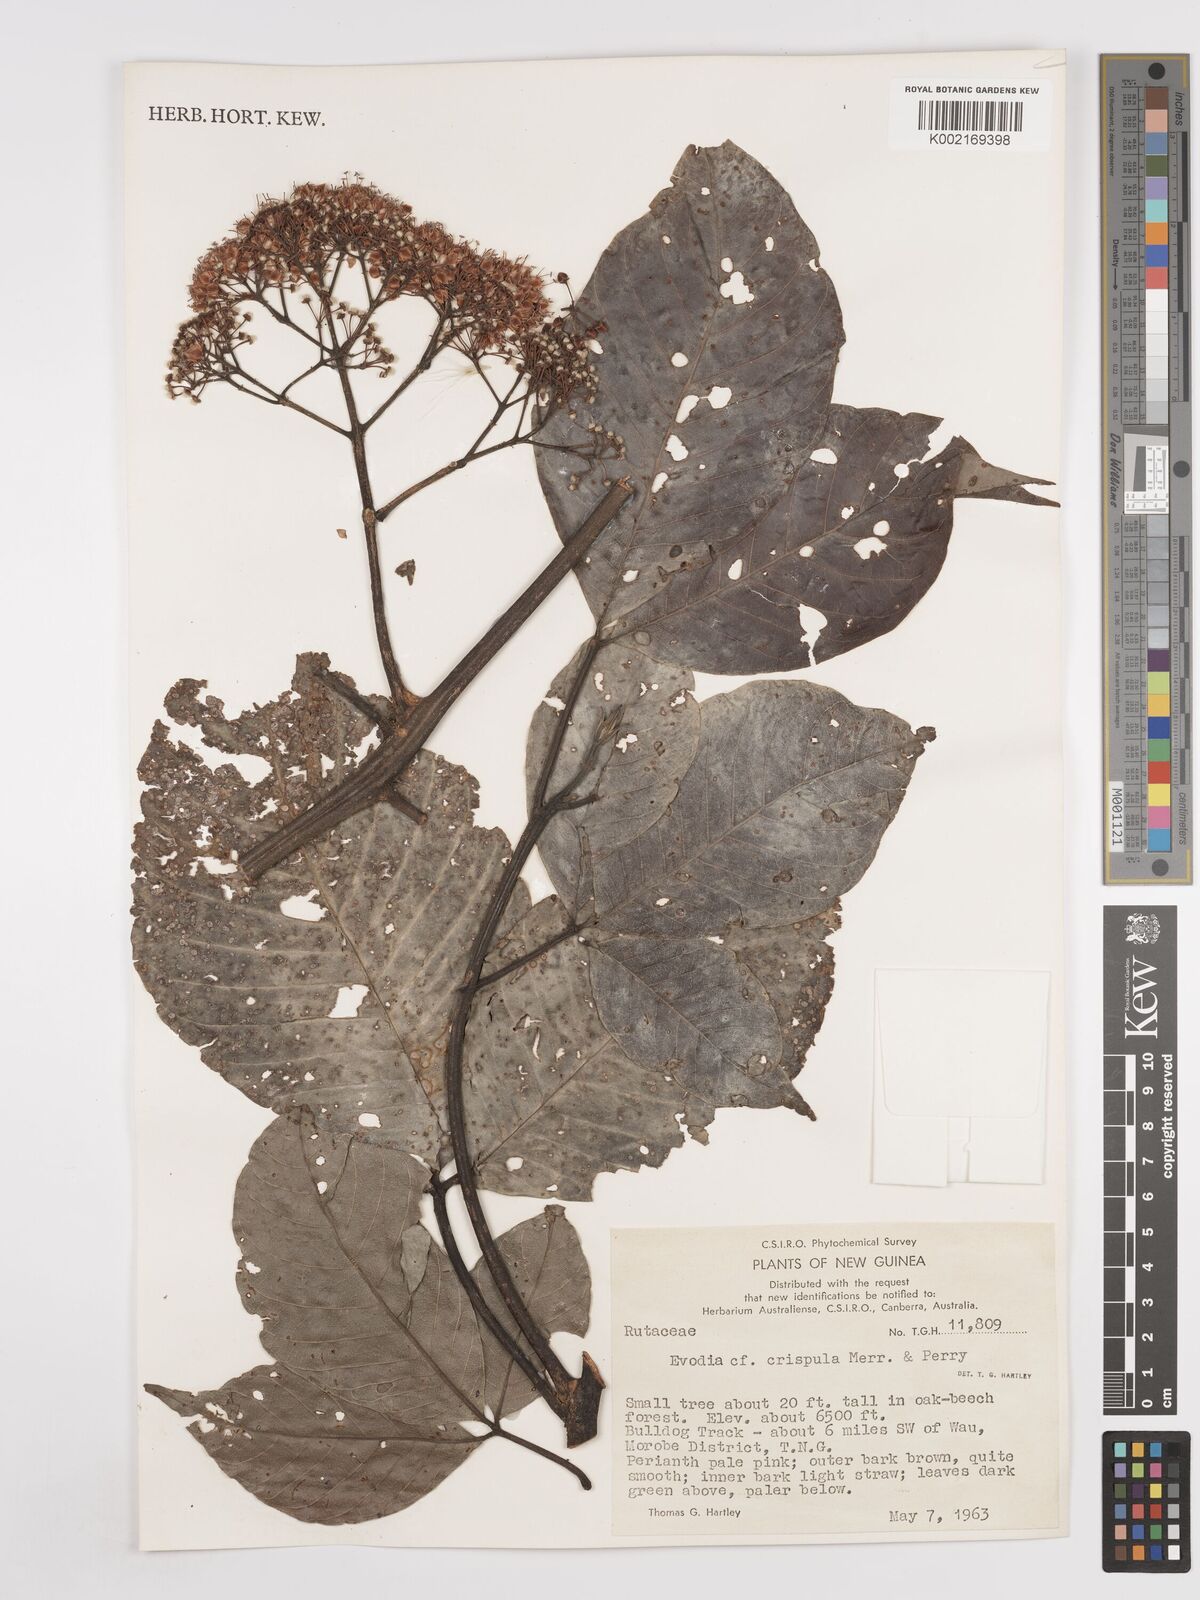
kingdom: Plantae
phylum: Tracheophyta
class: Magnoliopsida
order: Sapindales
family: Rutaceae
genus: Melicope
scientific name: Melicope crispula
